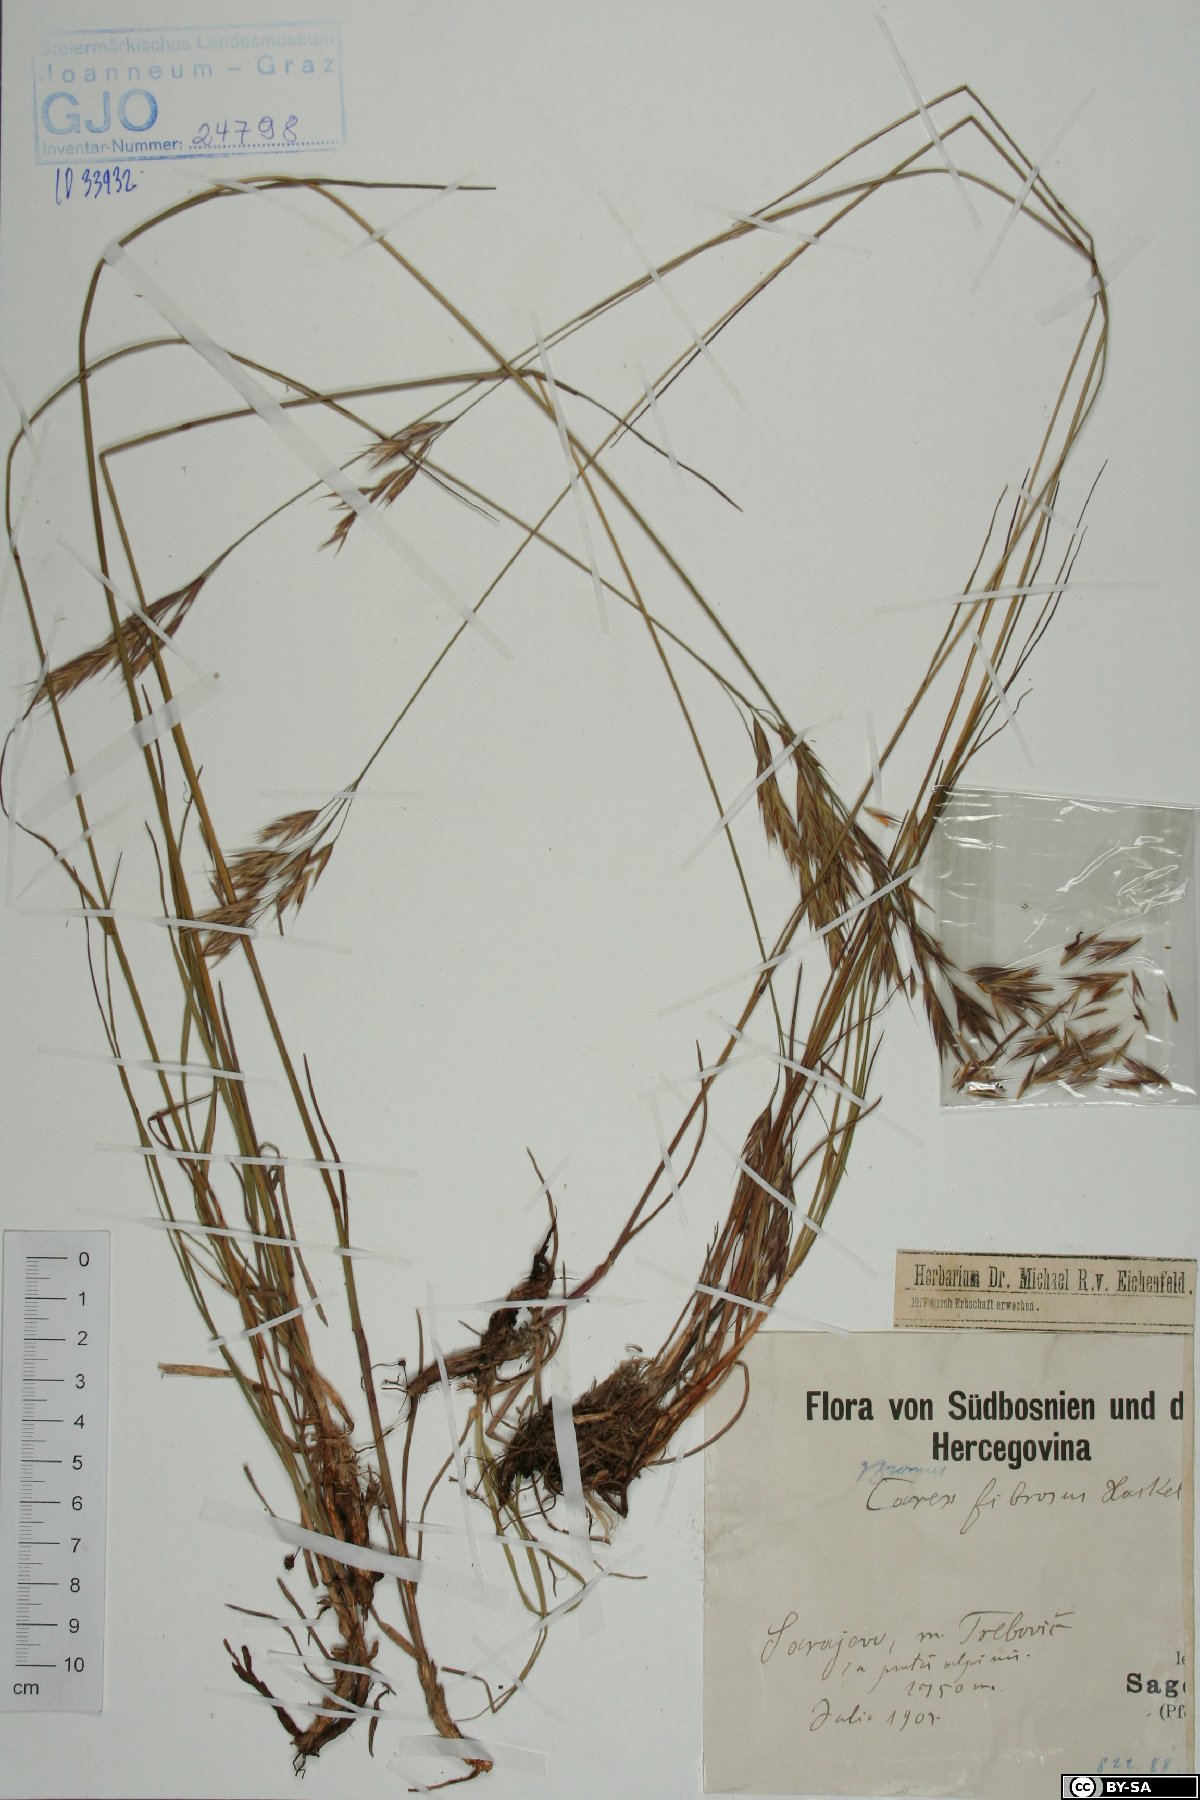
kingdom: Plantae
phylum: Tracheophyta
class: Liliopsida
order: Poales
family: Poaceae
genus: Bromus
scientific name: Bromus riparius
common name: Meadow brome
